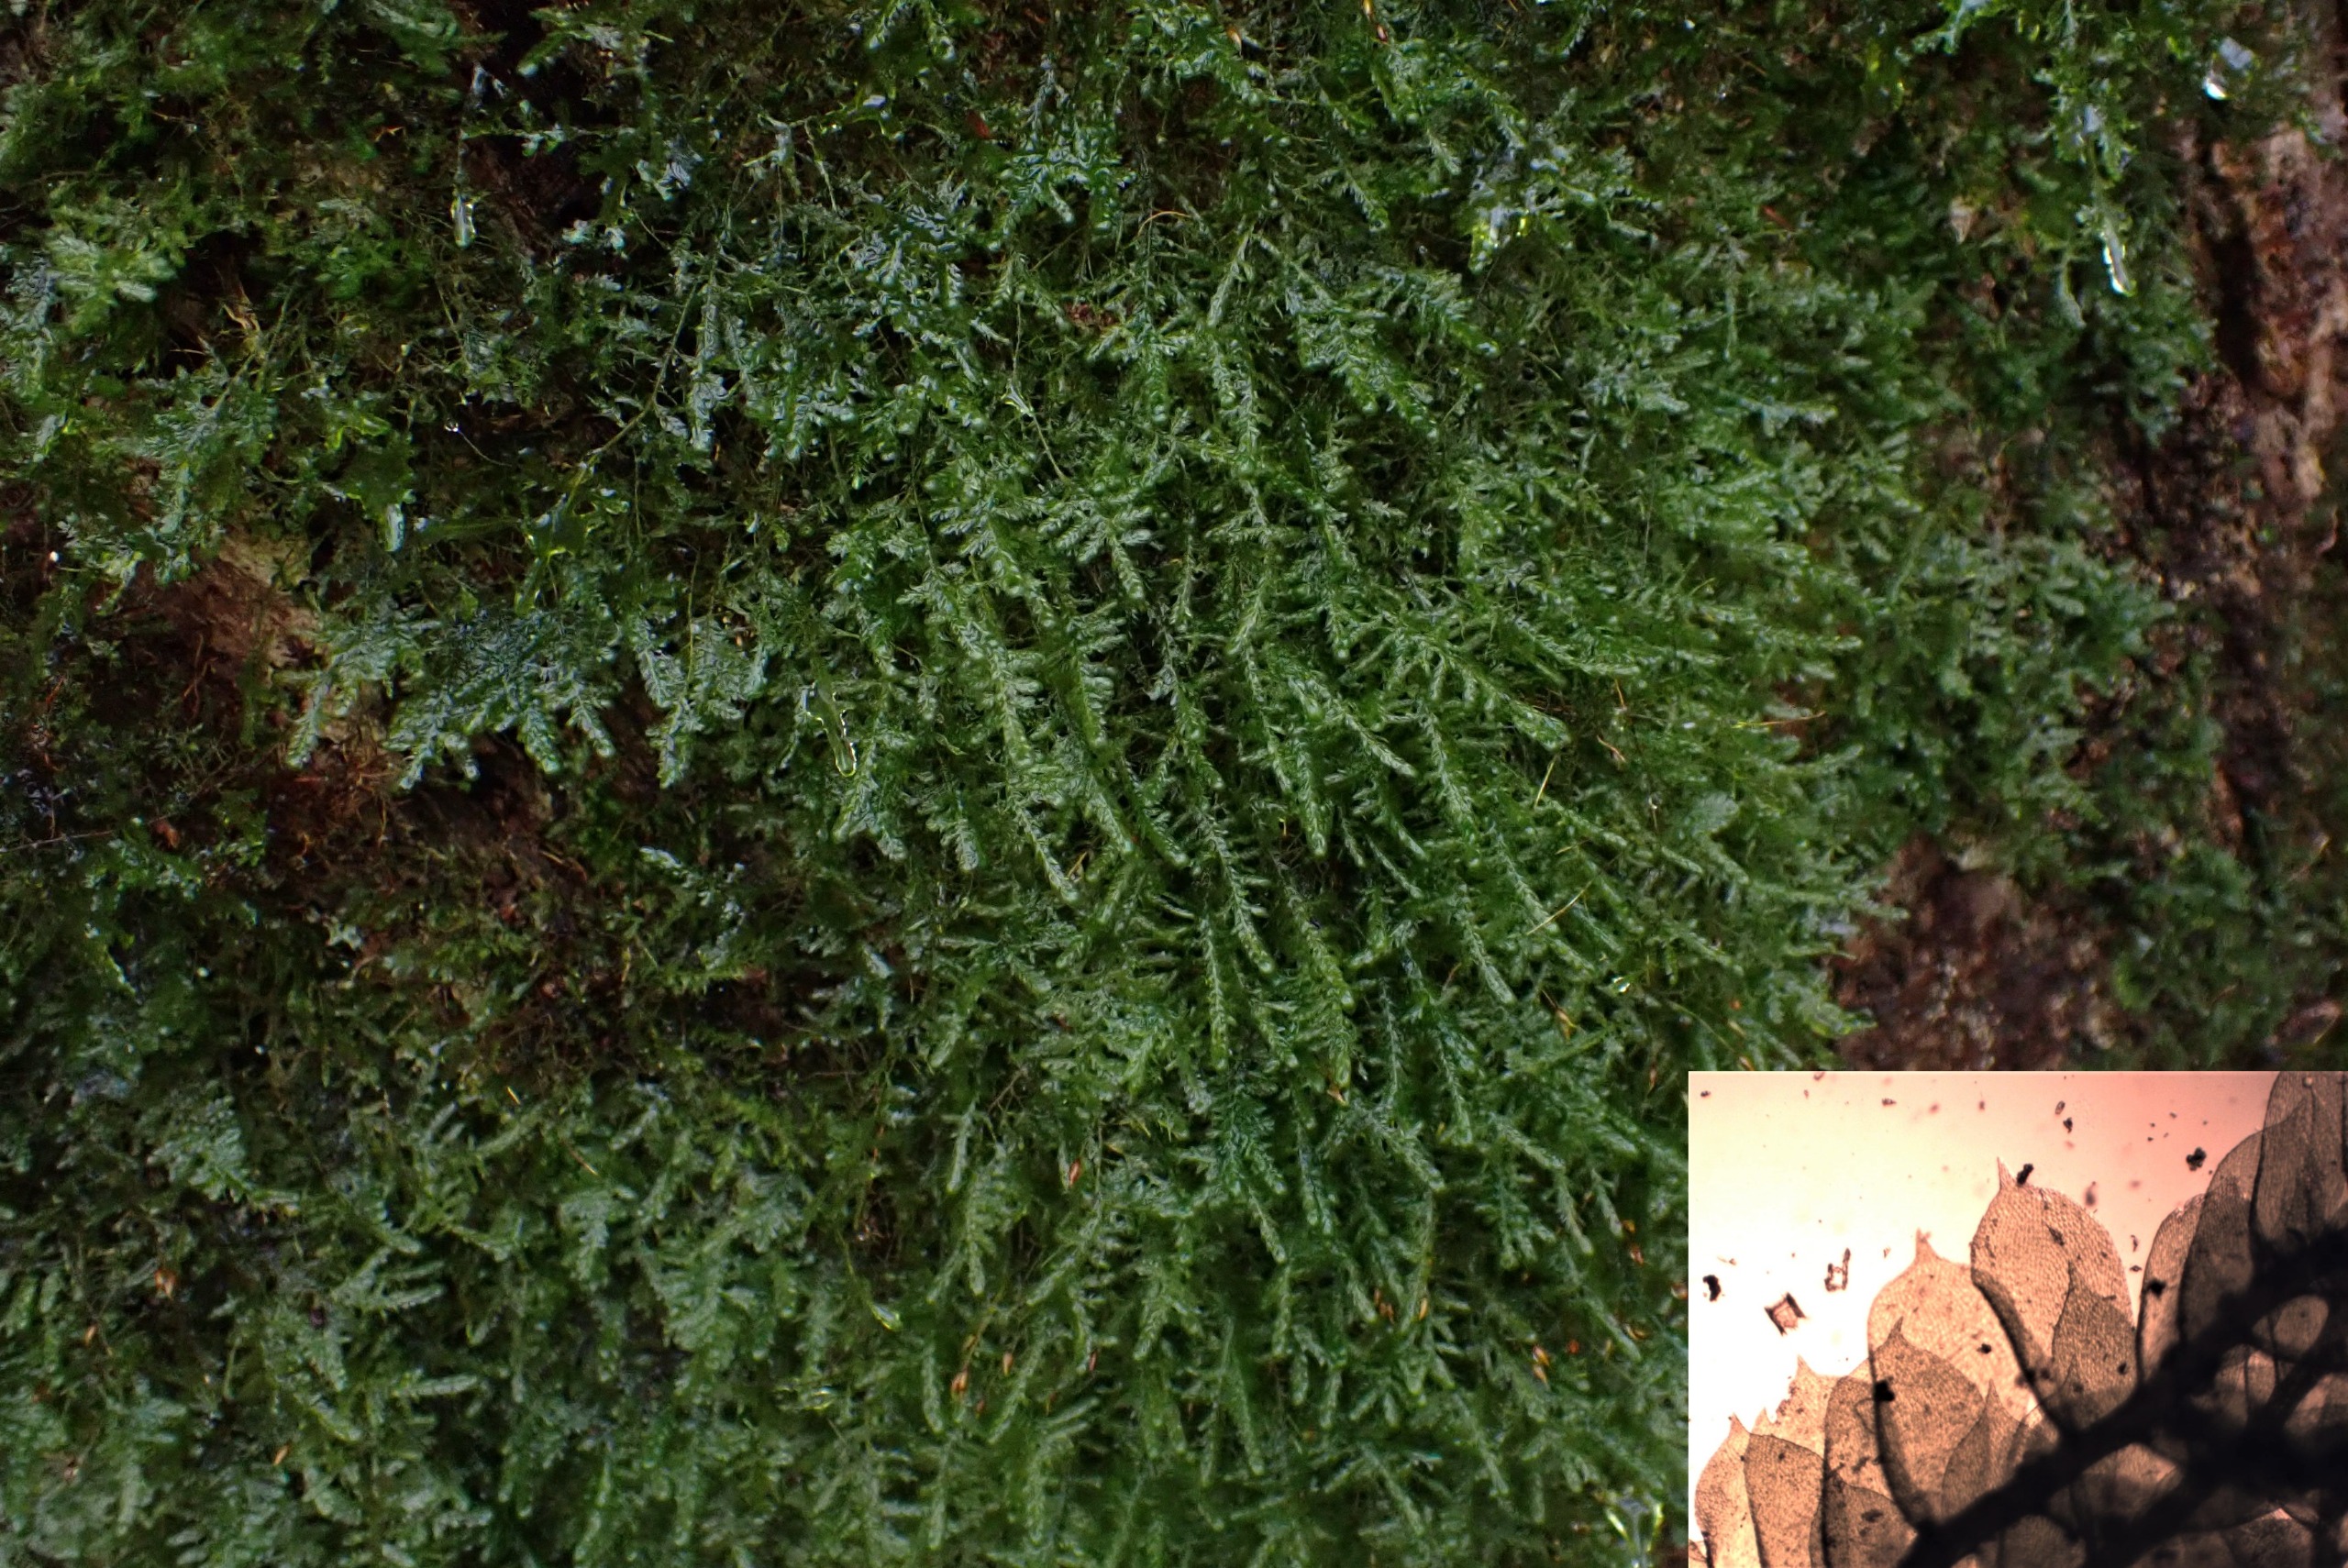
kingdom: Plantae
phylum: Bryophyta
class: Bryopsida
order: Hypnales
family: Neckeraceae
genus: Alleniella
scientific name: Alleniella complanata
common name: Almindelig fladmos
